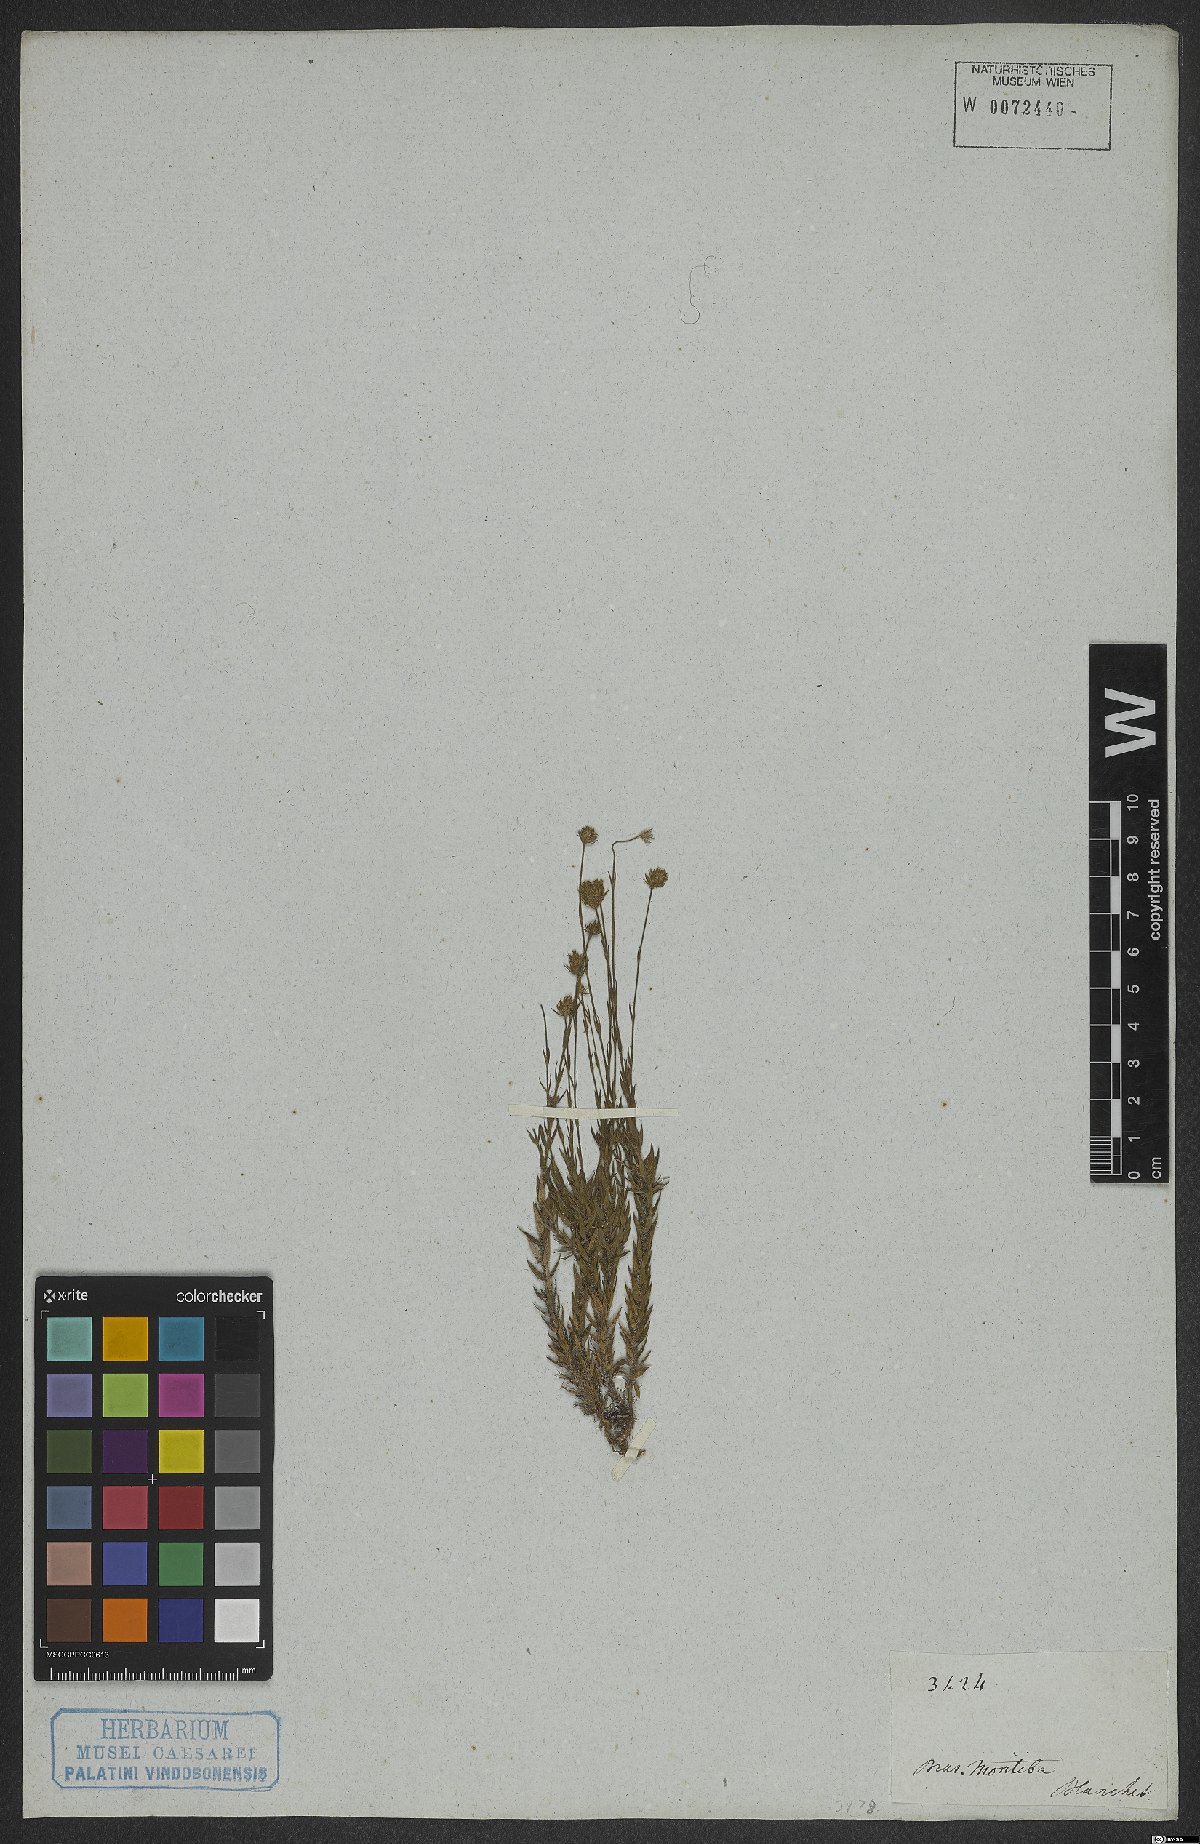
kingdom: Plantae
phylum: Tracheophyta
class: Magnoliopsida
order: Gentianales
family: Rubiaceae
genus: Perama
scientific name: Perama
